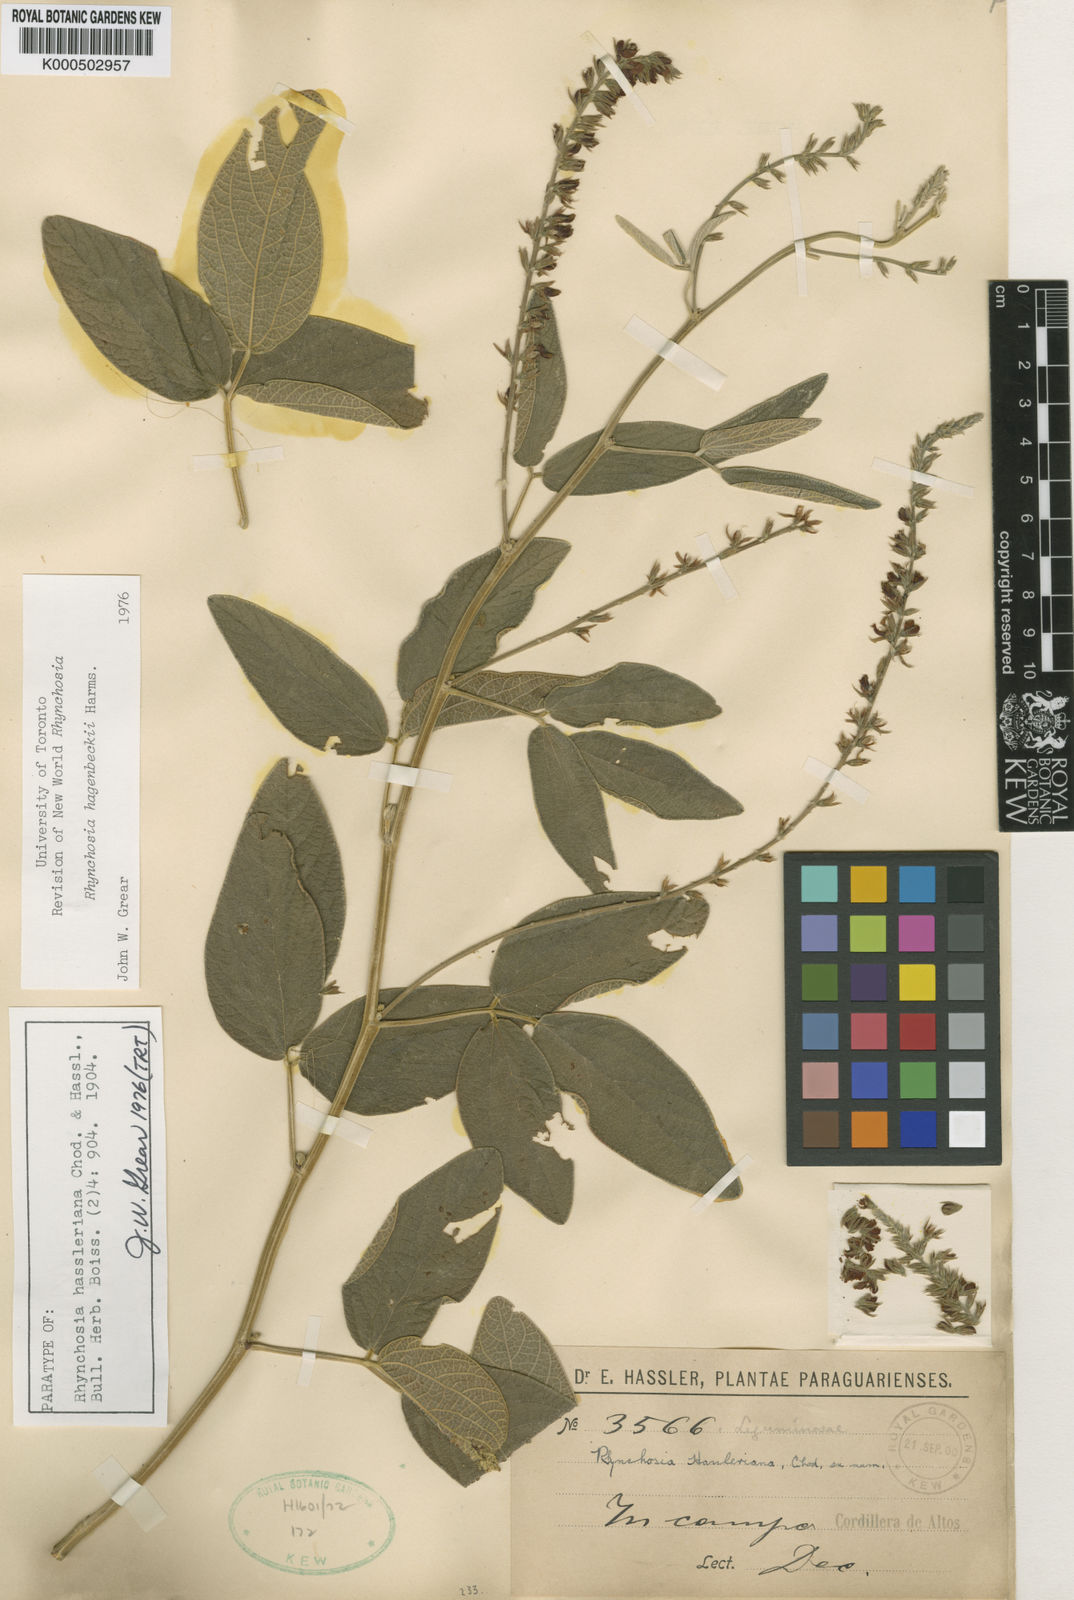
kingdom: Plantae
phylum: Tracheophyta
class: Magnoliopsida
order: Fabales
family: Fabaceae
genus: Rhynchosia
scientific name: Rhynchosia balansae
